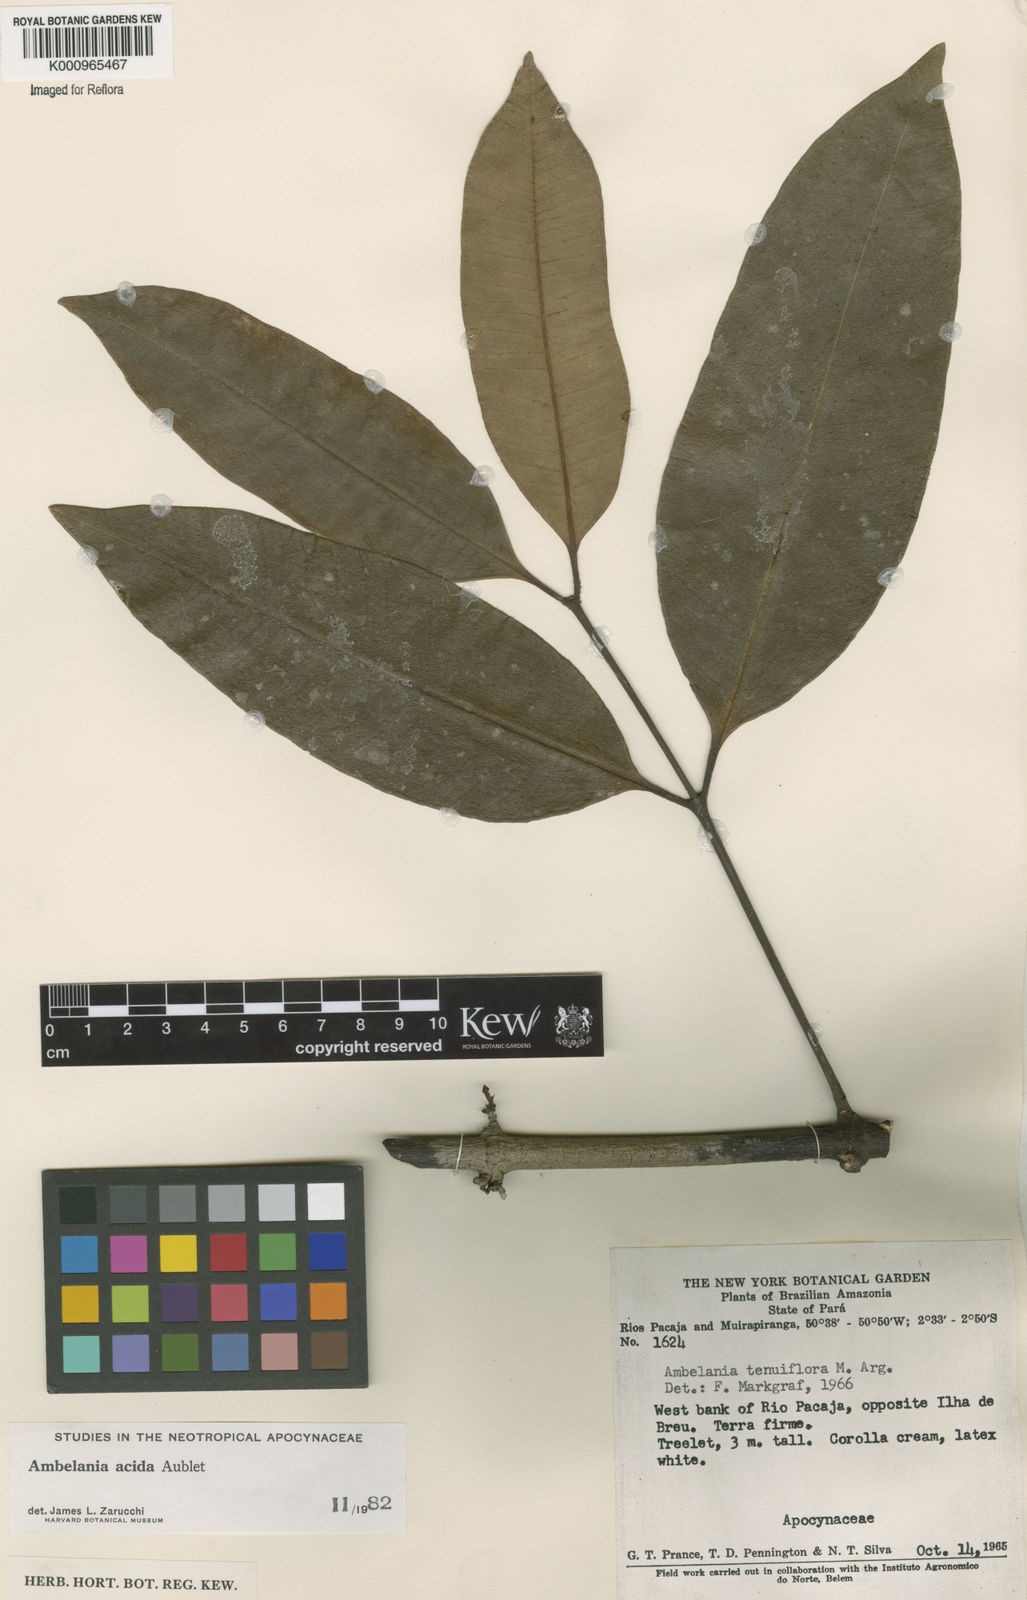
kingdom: Plantae
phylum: Tracheophyta
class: Magnoliopsida
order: Gentianales
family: Apocynaceae
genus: Ambelania
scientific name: Ambelania acida
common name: Bagasse
